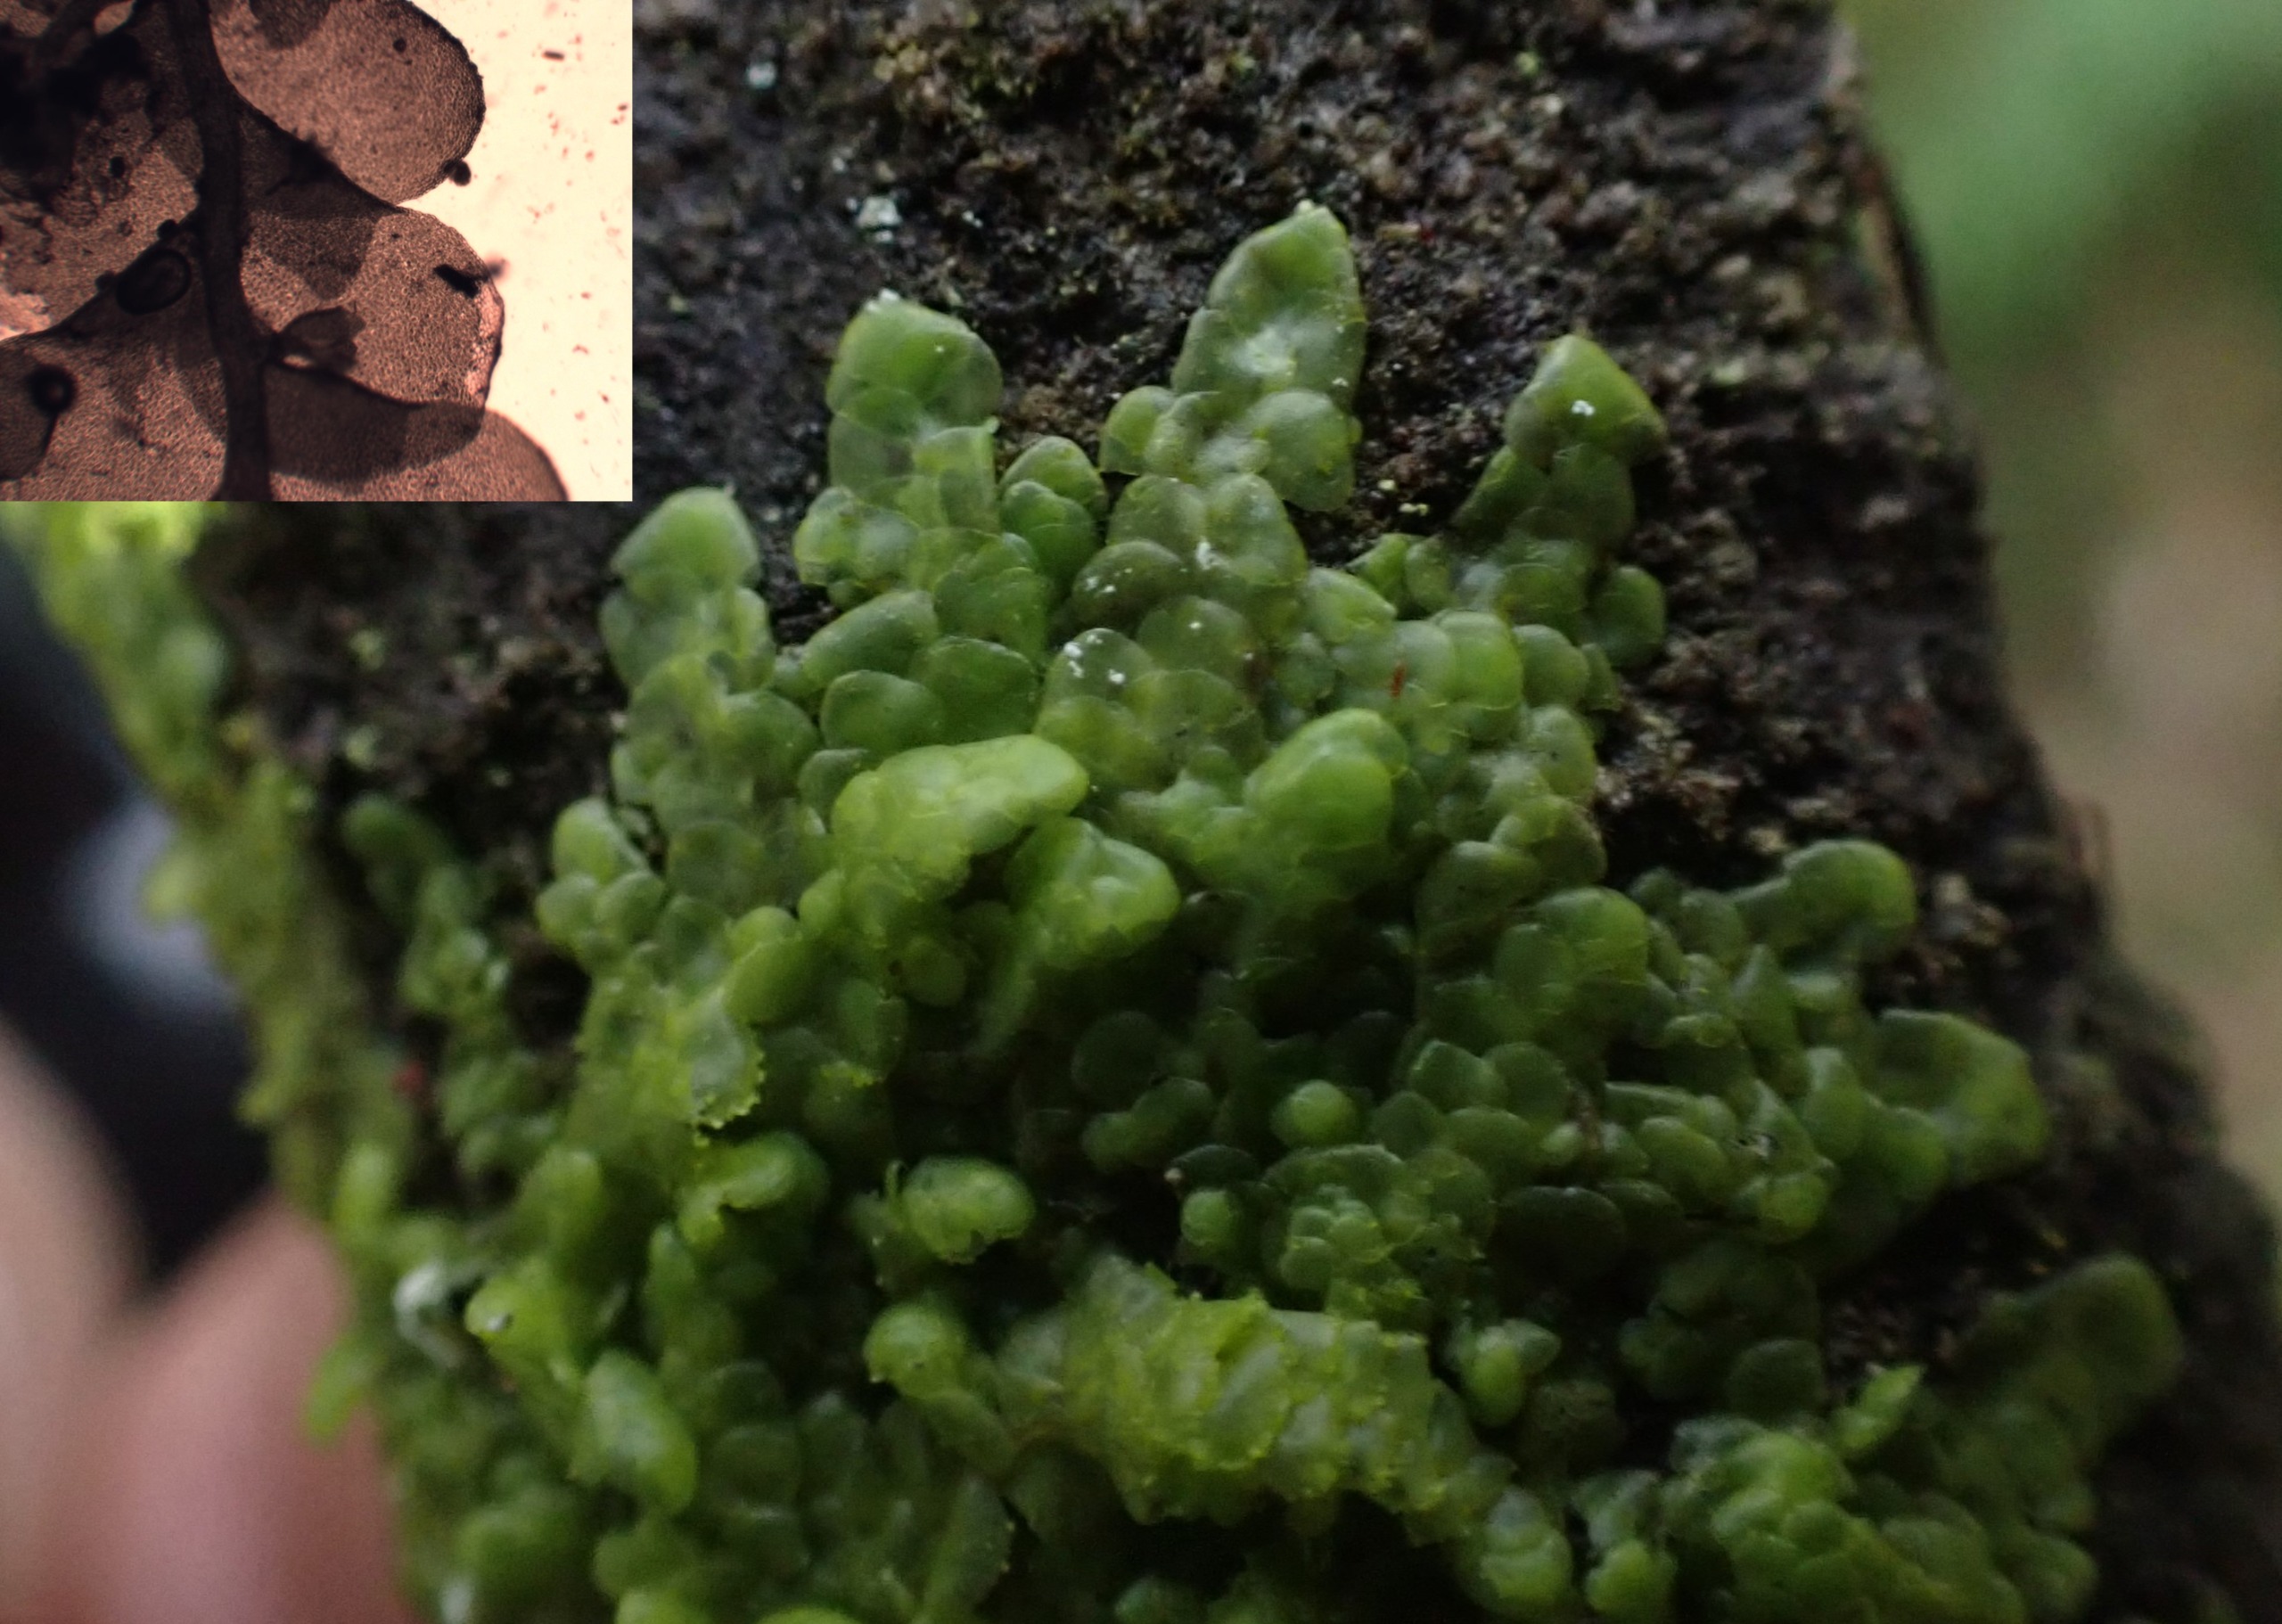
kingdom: Plantae
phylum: Marchantiophyta
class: Jungermanniopsida
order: Porellales
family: Radulaceae
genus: Radula
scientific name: Radula complanata
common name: Almindelig spartelmos
